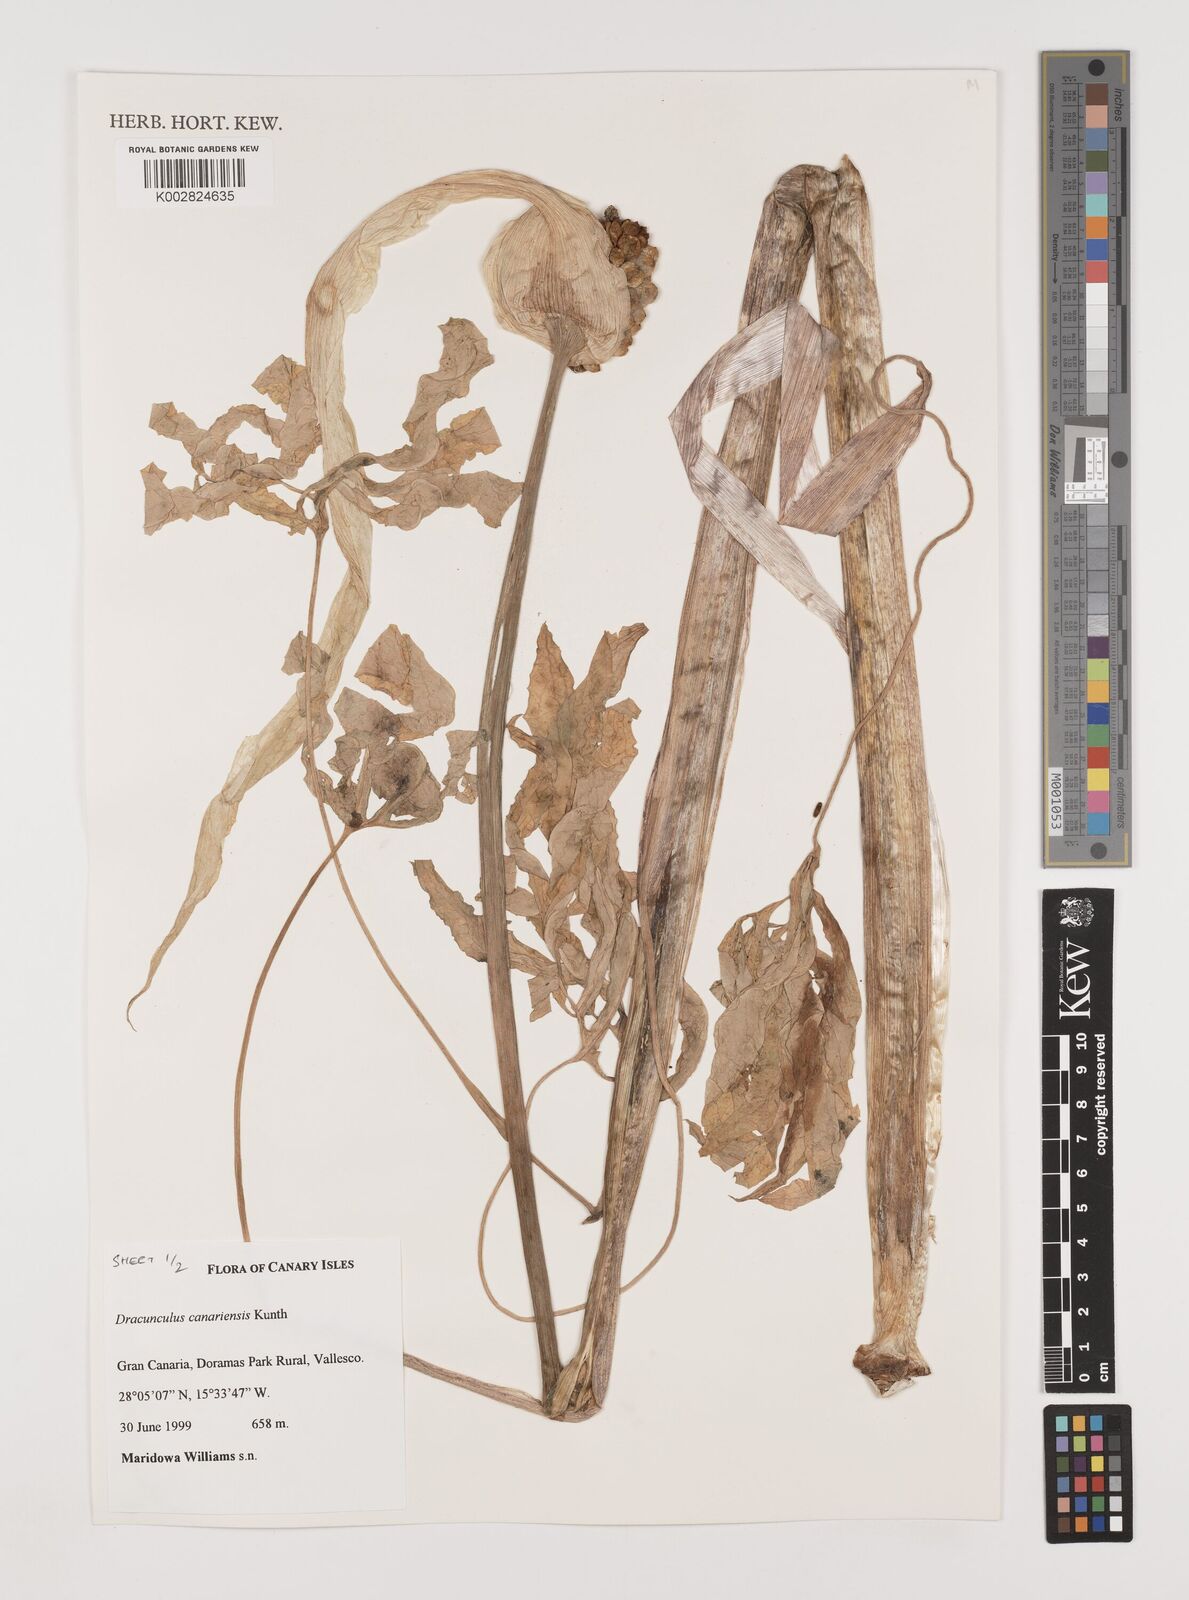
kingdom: Plantae
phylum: Tracheophyta
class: Liliopsida
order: Alismatales
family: Araceae
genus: Dracunculus
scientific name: Dracunculus
